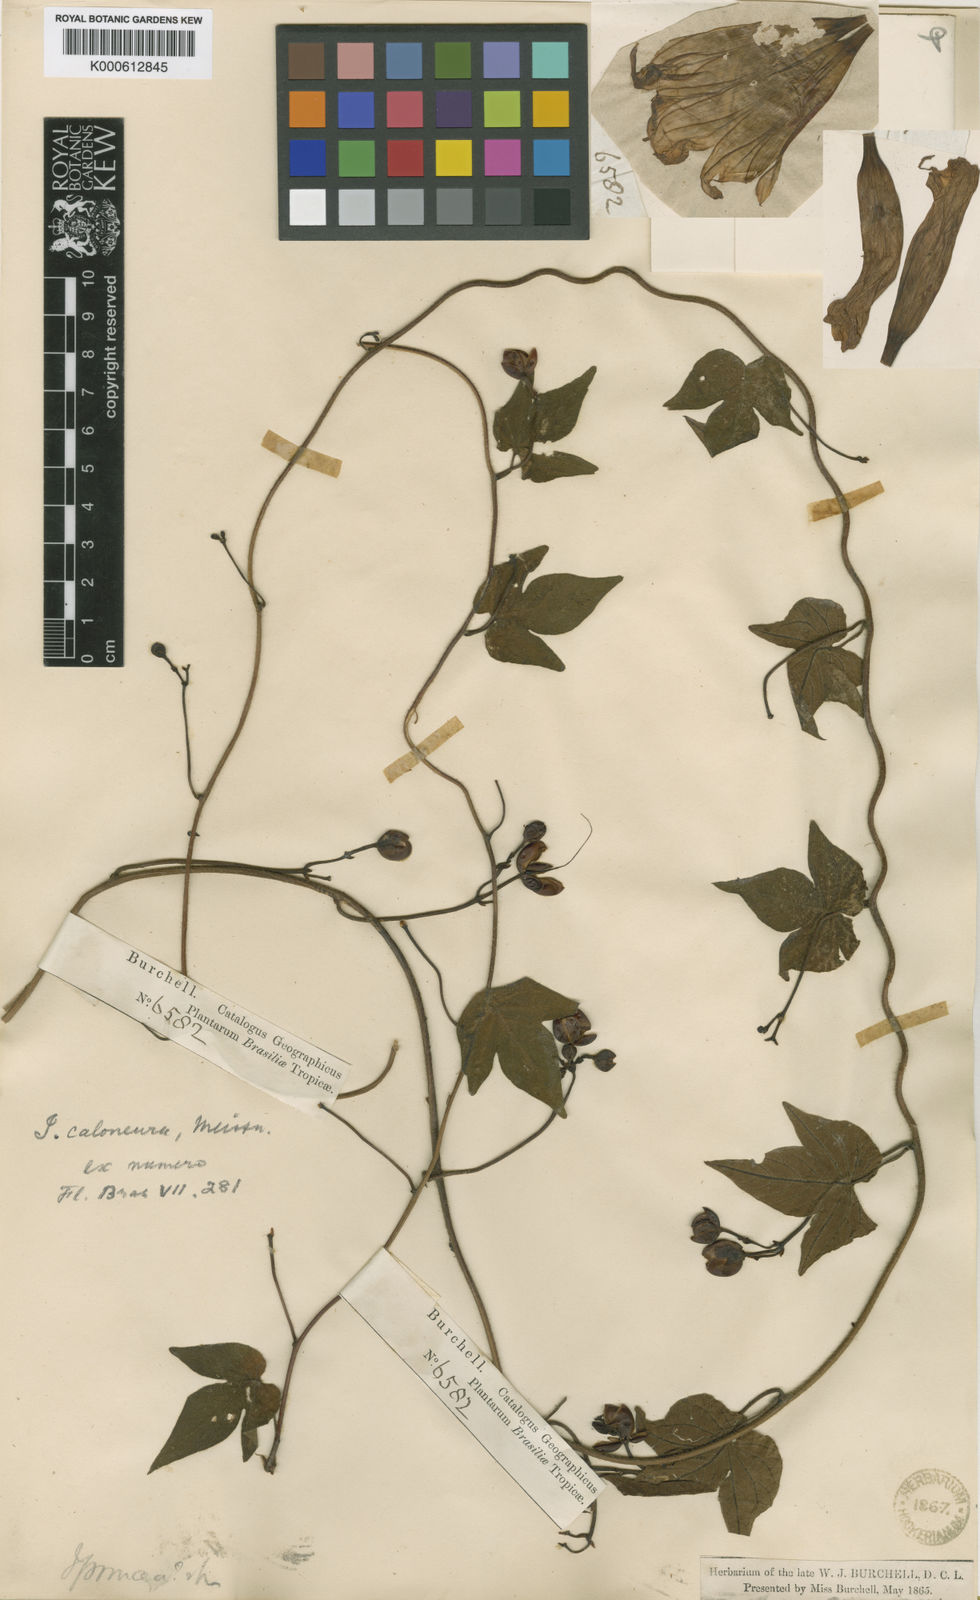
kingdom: Plantae
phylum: Tracheophyta
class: Magnoliopsida
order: Solanales
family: Convolvulaceae
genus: Ipomoea
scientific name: Ipomoea caloneura
